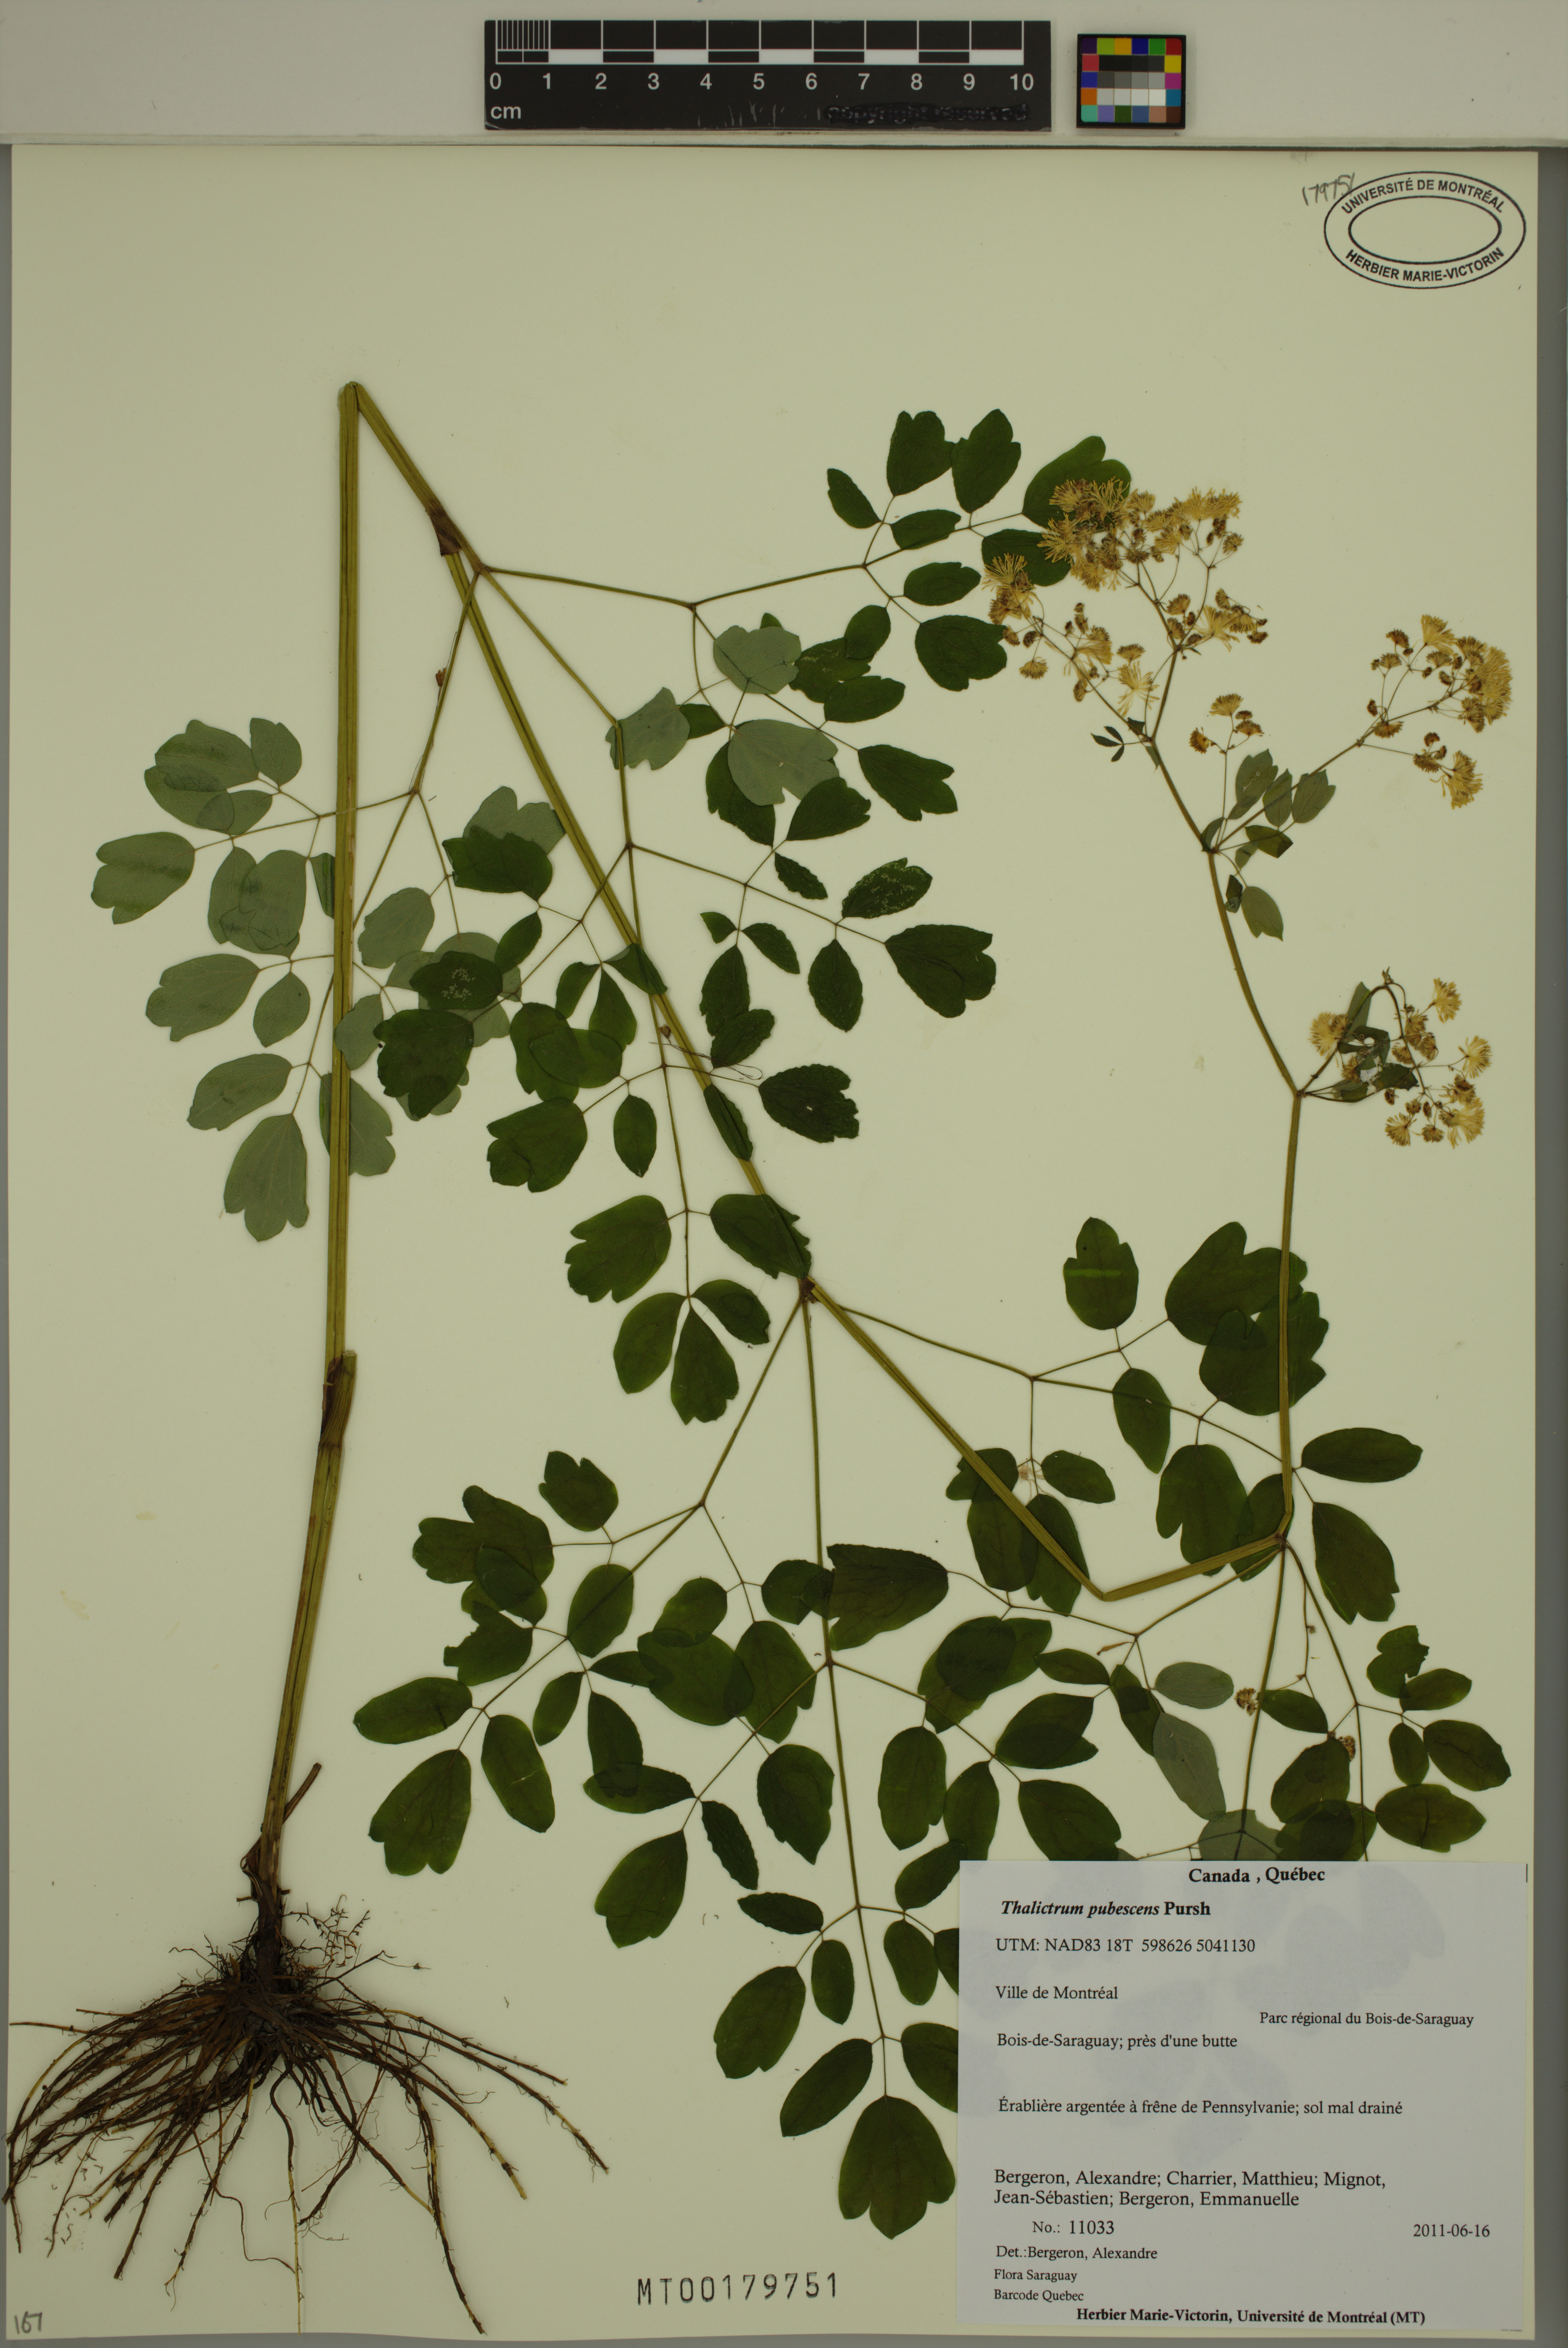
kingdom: Plantae
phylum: Tracheophyta
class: Magnoliopsida
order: Ranunculales
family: Ranunculaceae
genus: Thalictrum
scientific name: Thalictrum pubescens
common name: King-of-the-meadow
